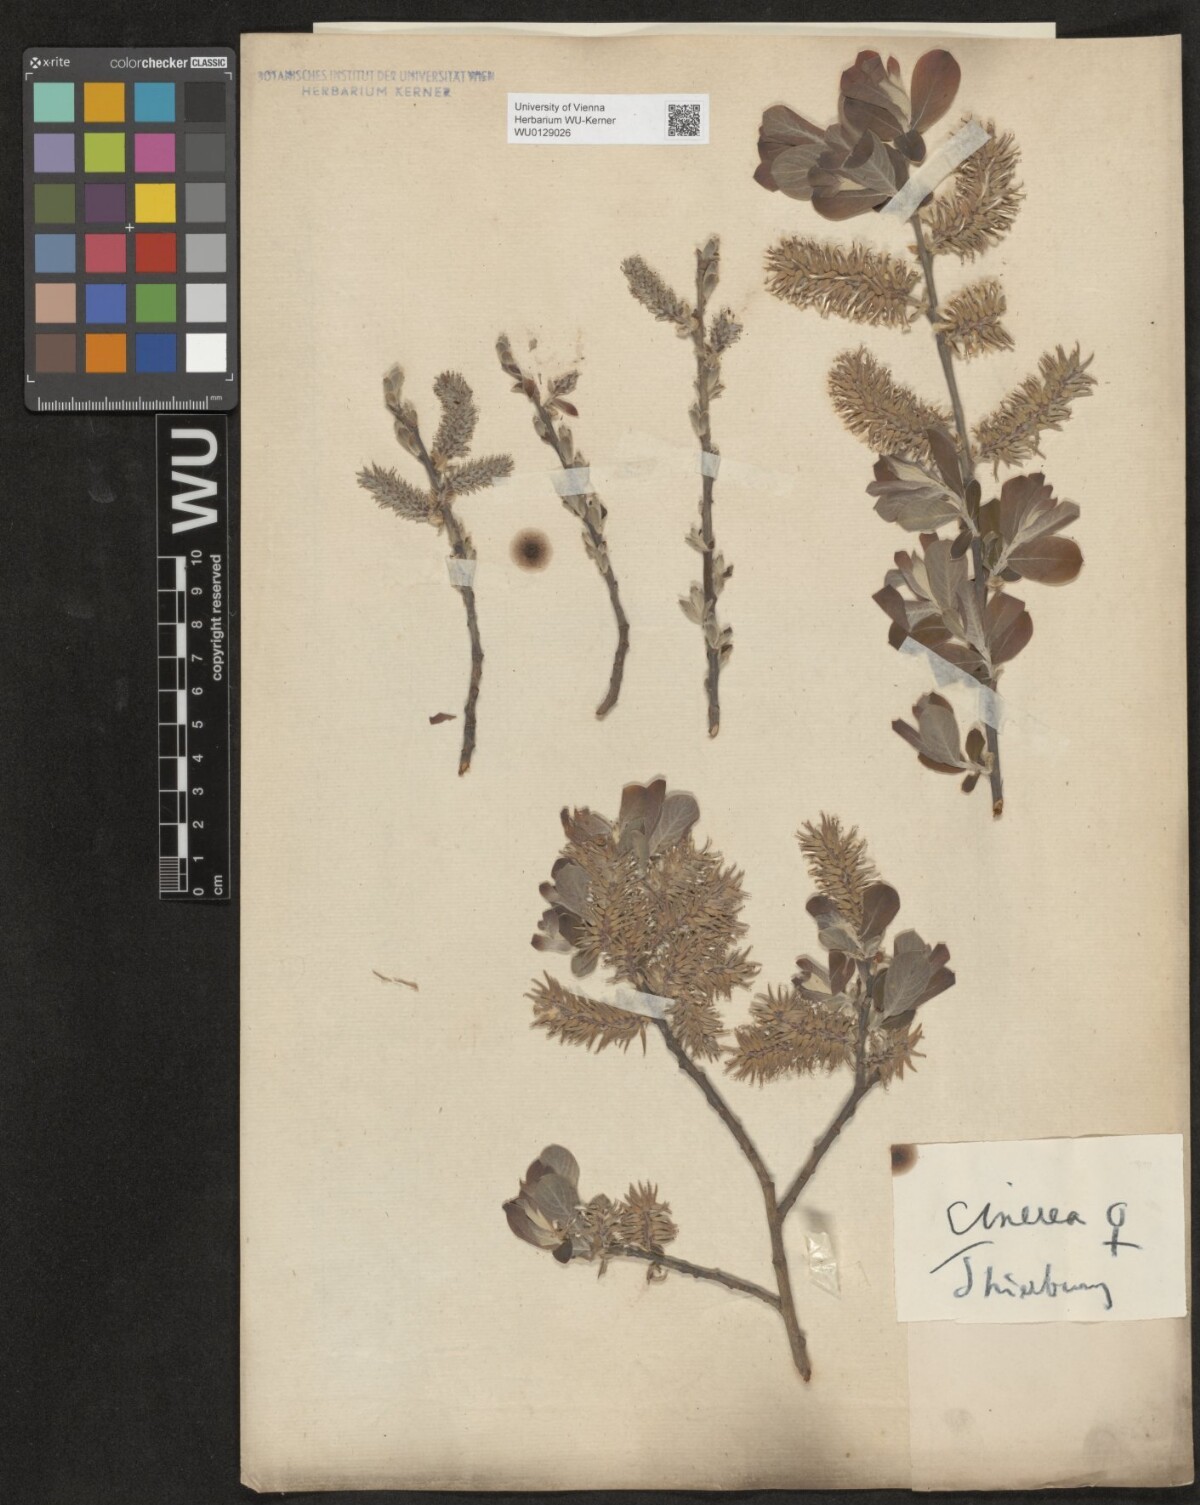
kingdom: Plantae
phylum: Tracheophyta
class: Magnoliopsida
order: Malpighiales
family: Salicaceae
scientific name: Salicaceae
